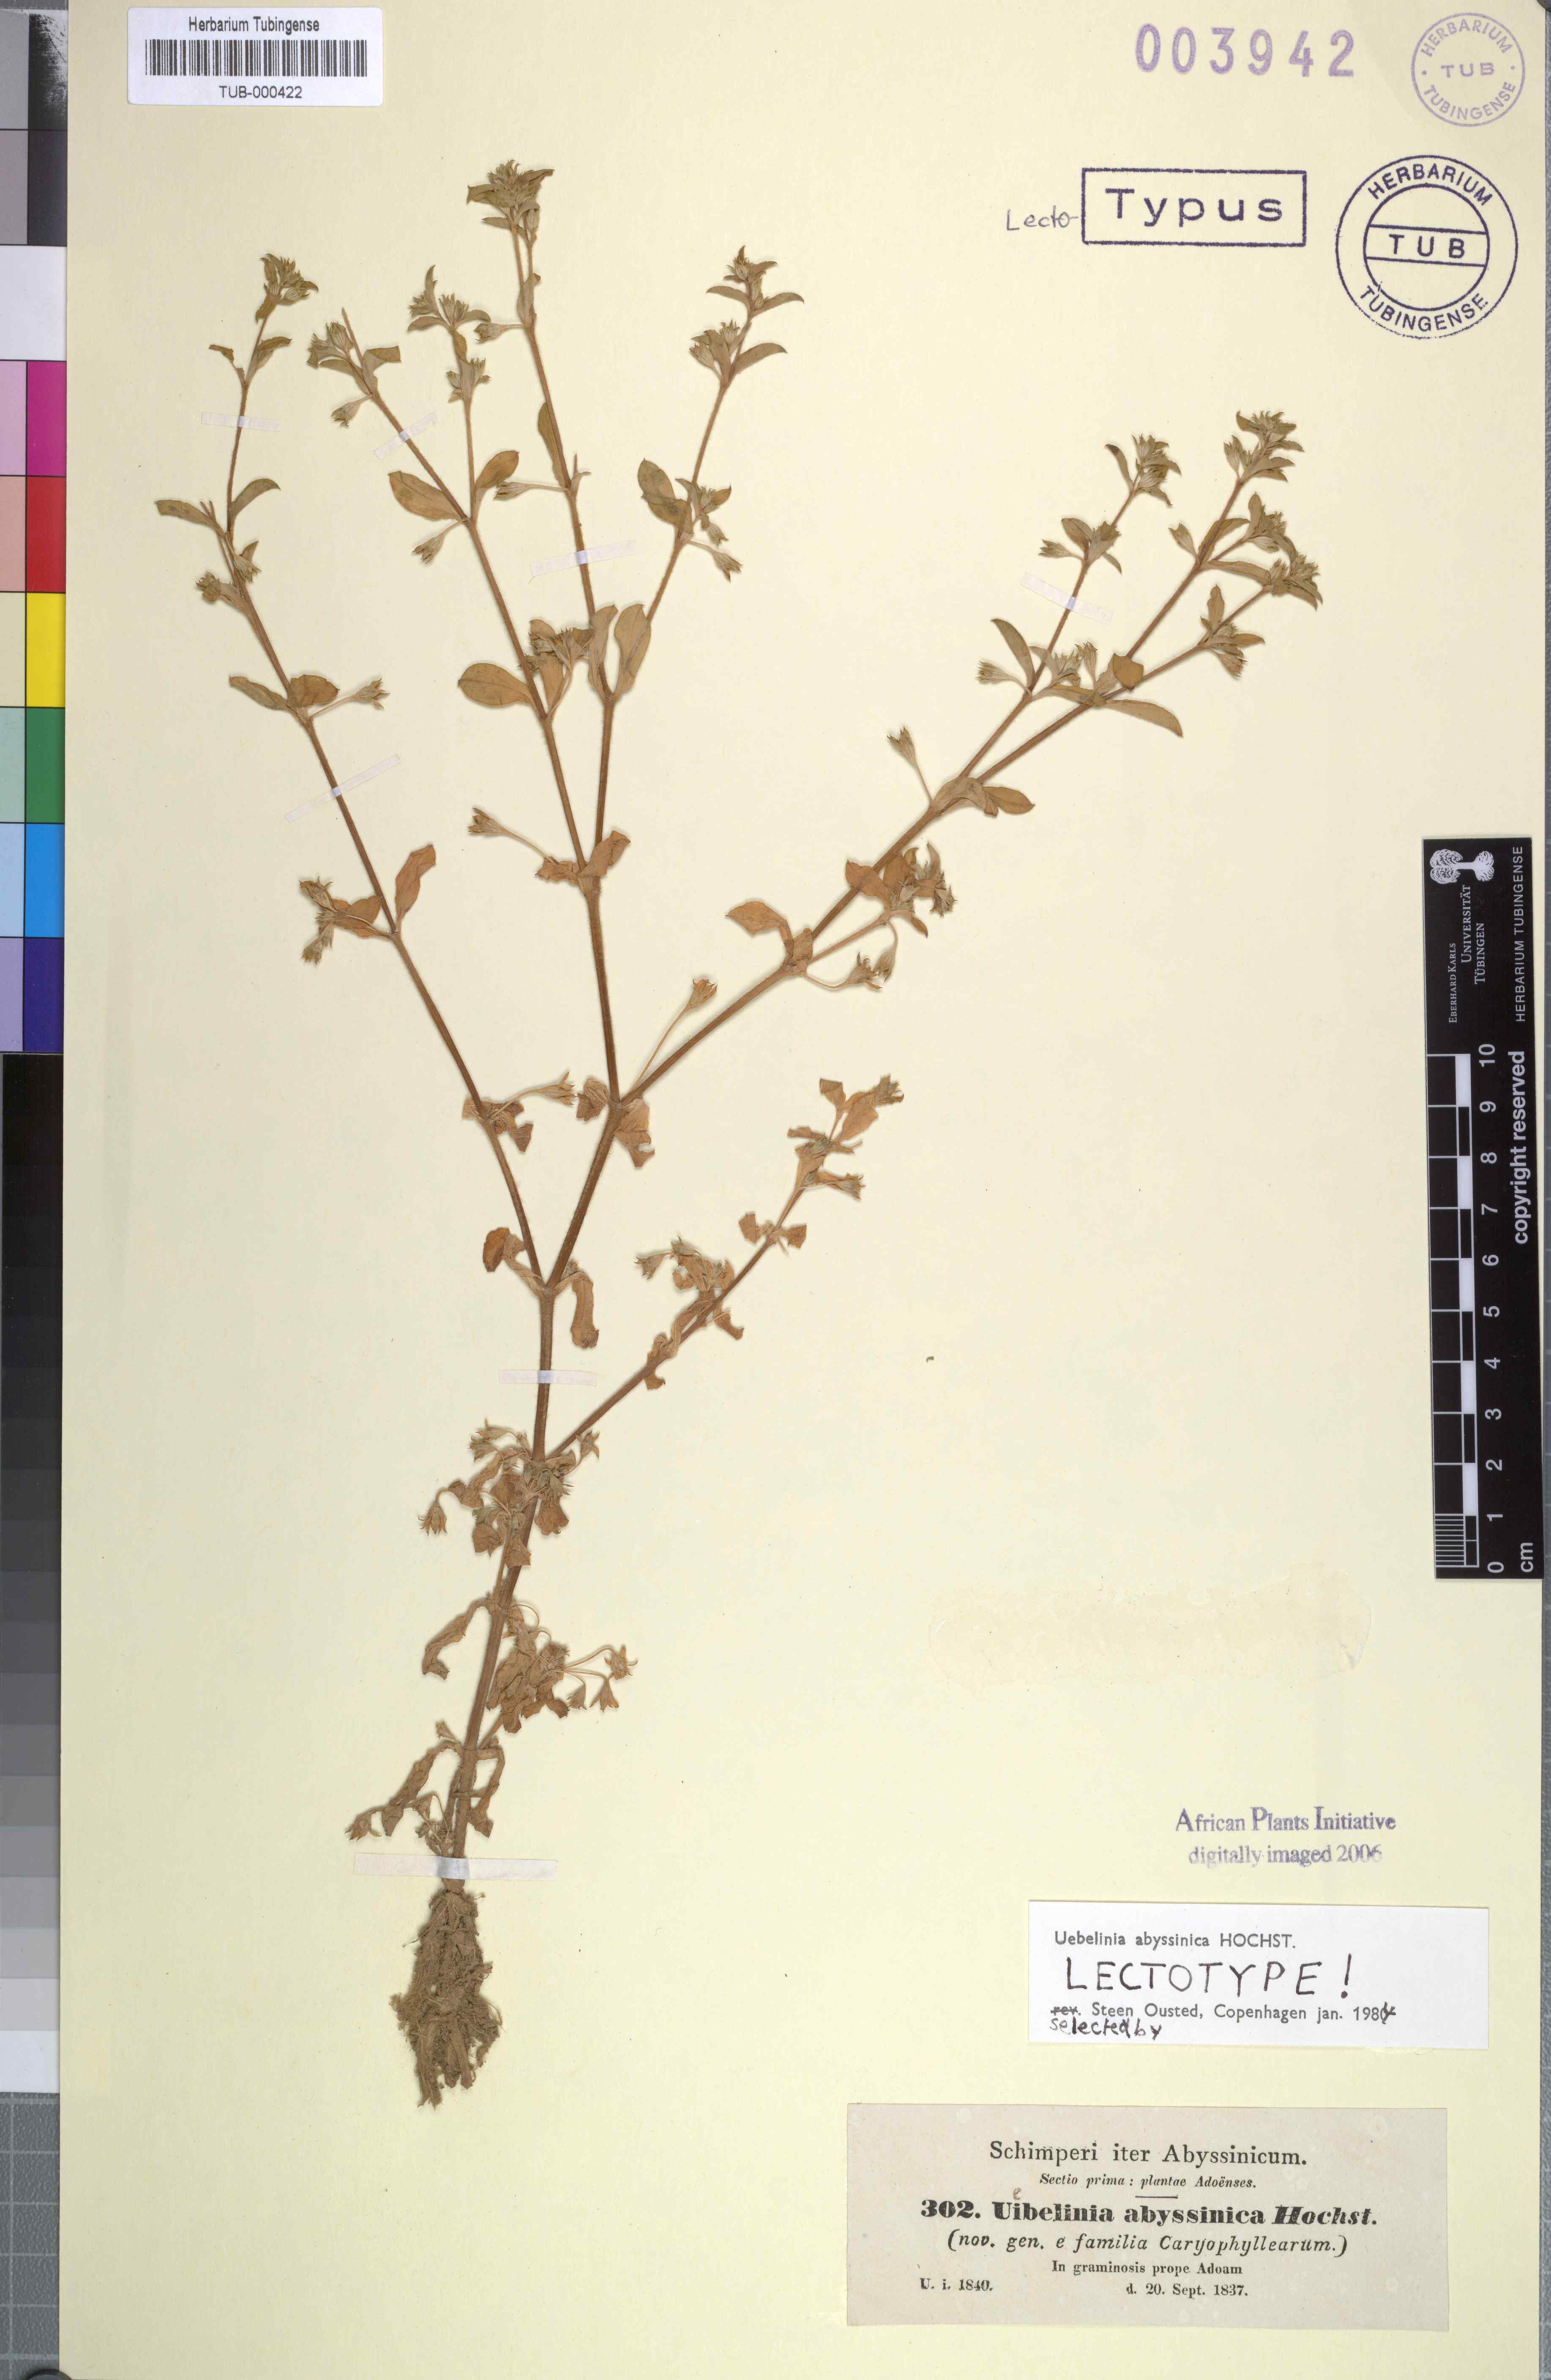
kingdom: Plantae
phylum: Tracheophyta
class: Magnoliopsida
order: Caryophyllales
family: Caryophyllaceae
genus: Silene
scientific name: Silene abyssinica
